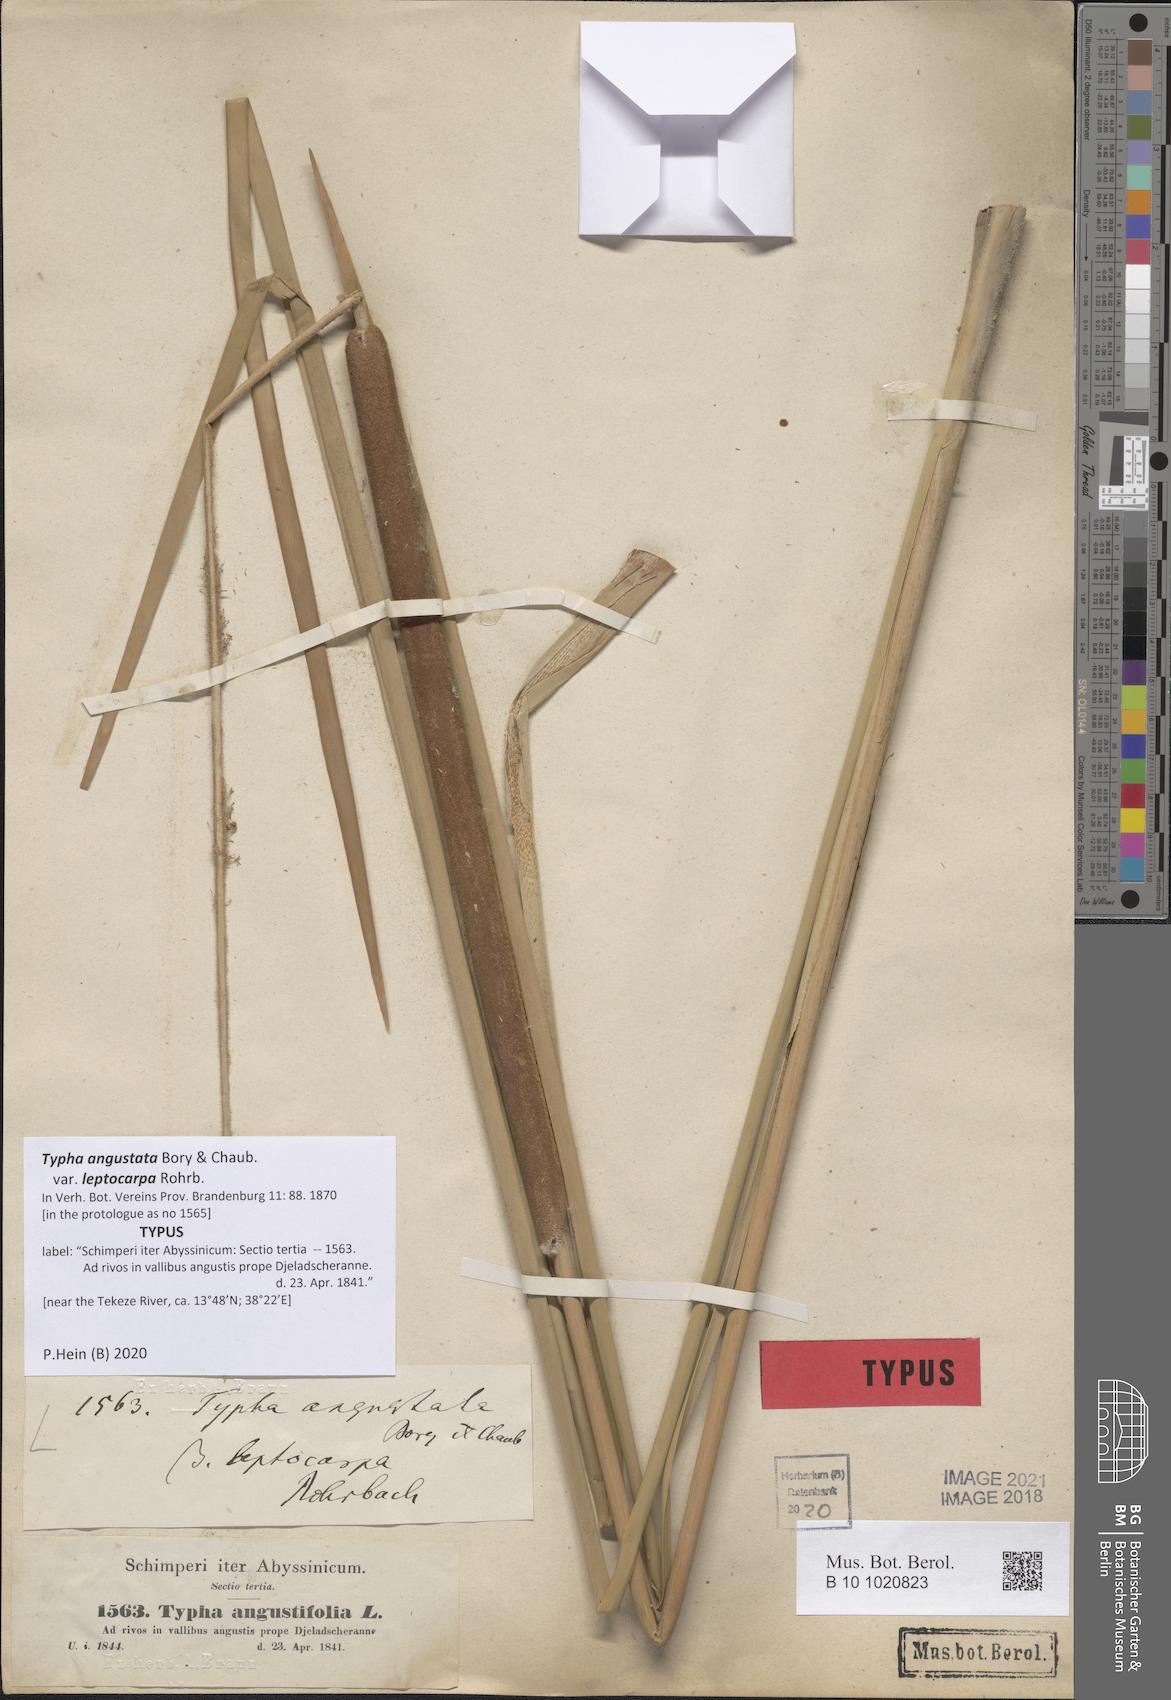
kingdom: Plantae
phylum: Tracheophyta
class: Liliopsida
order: Poales
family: Typhaceae
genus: Typha
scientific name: Typha domingensis
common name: Southern cattail
